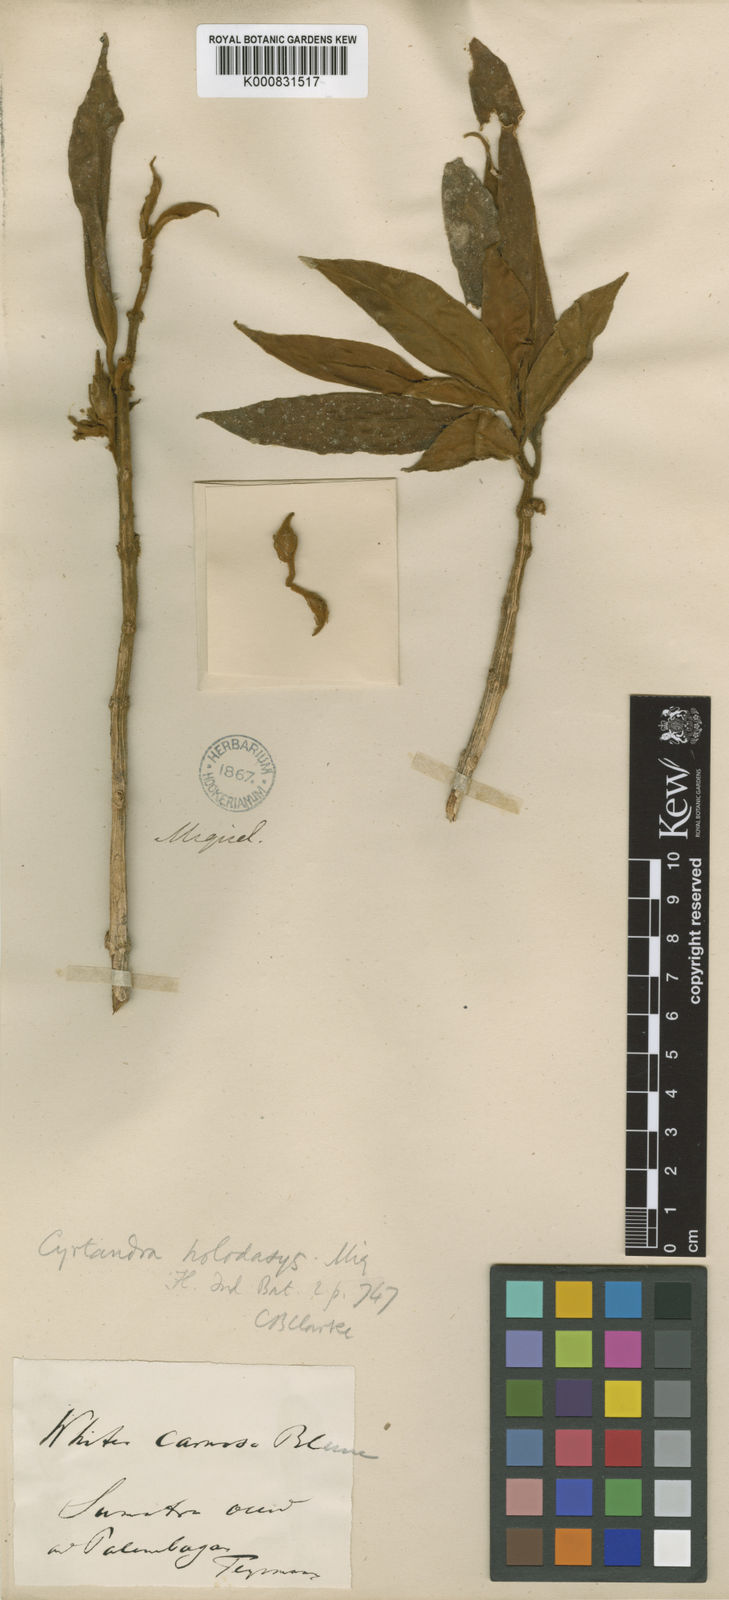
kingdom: Plantae
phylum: Tracheophyta
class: Magnoliopsida
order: Lamiales
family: Gesneriaceae
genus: Cyrtandra
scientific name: Cyrtandra holodasys
